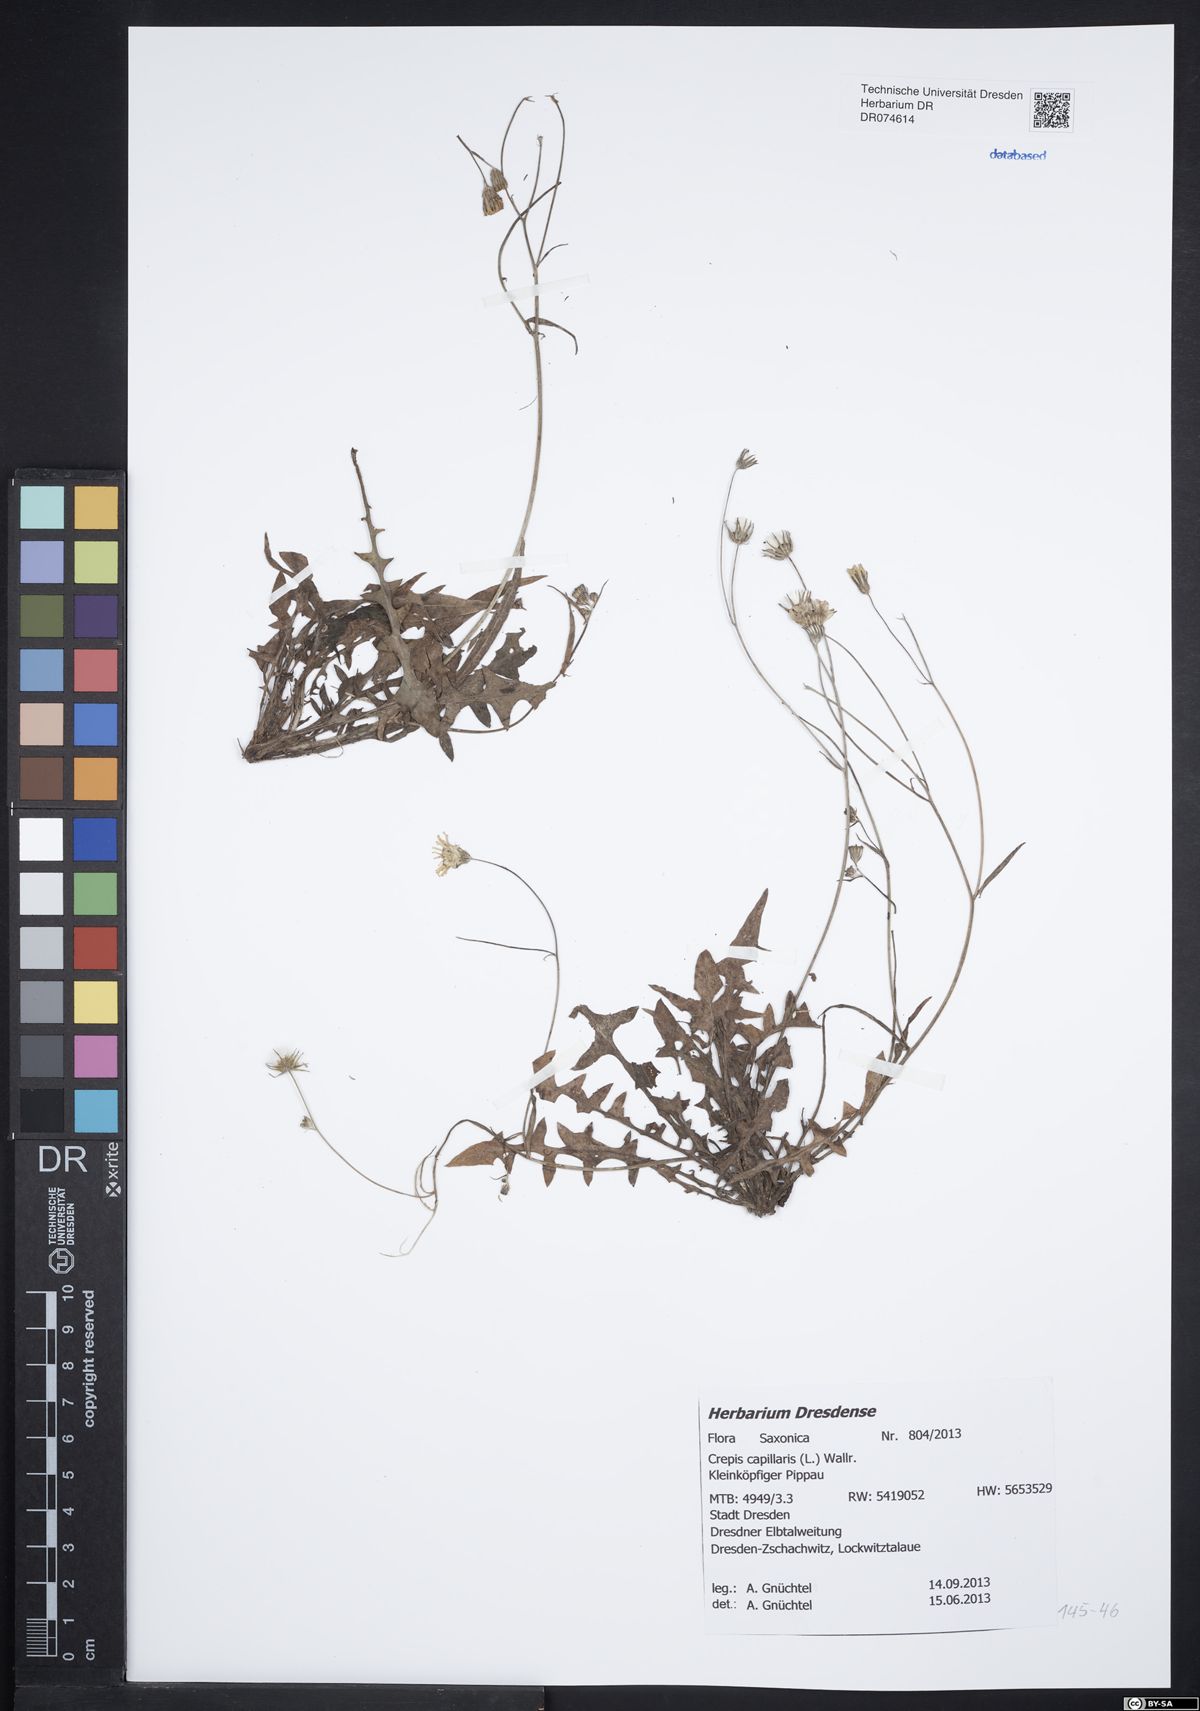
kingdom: Plantae
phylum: Tracheophyta
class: Magnoliopsida
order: Asterales
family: Asteraceae
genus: Crepis
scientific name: Crepis capillaris
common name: Smooth hawksbeard
